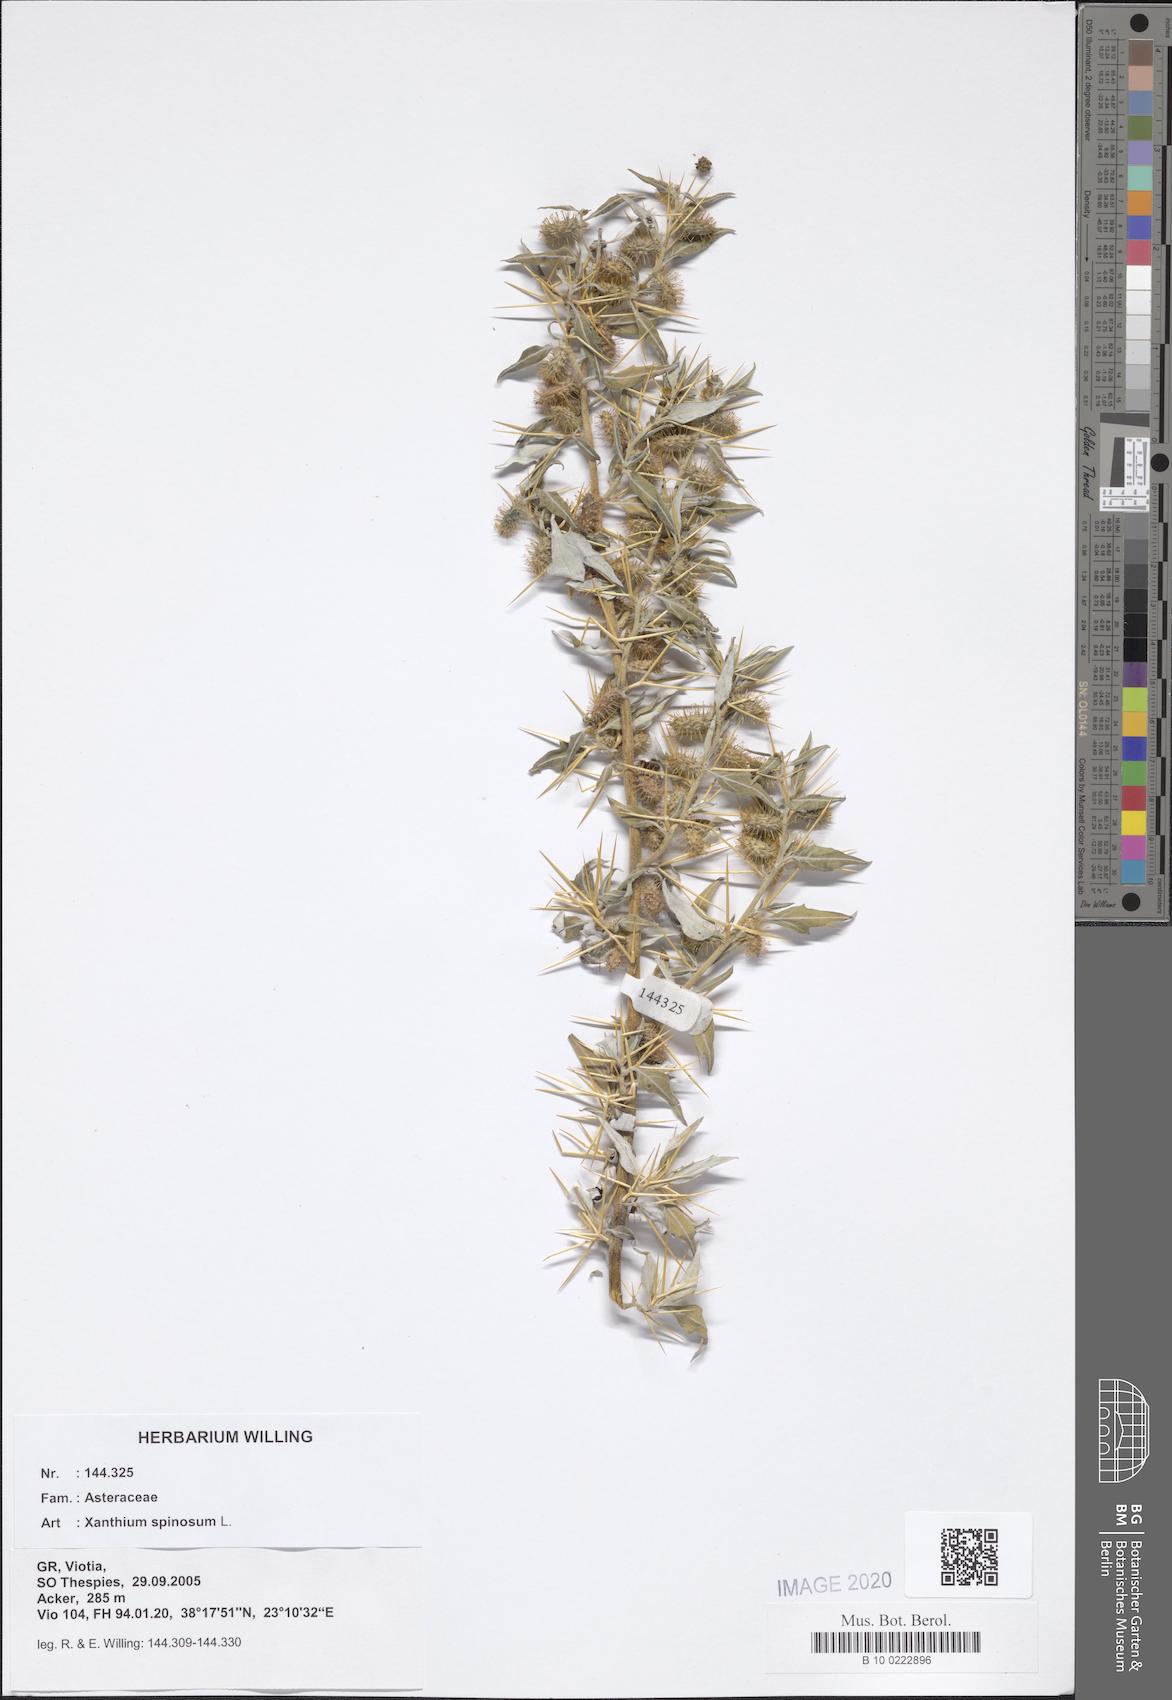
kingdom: Plantae
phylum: Tracheophyta
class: Magnoliopsida
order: Asterales
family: Asteraceae
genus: Xanthium
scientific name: Xanthium spinosum
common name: Spiny cocklebur
